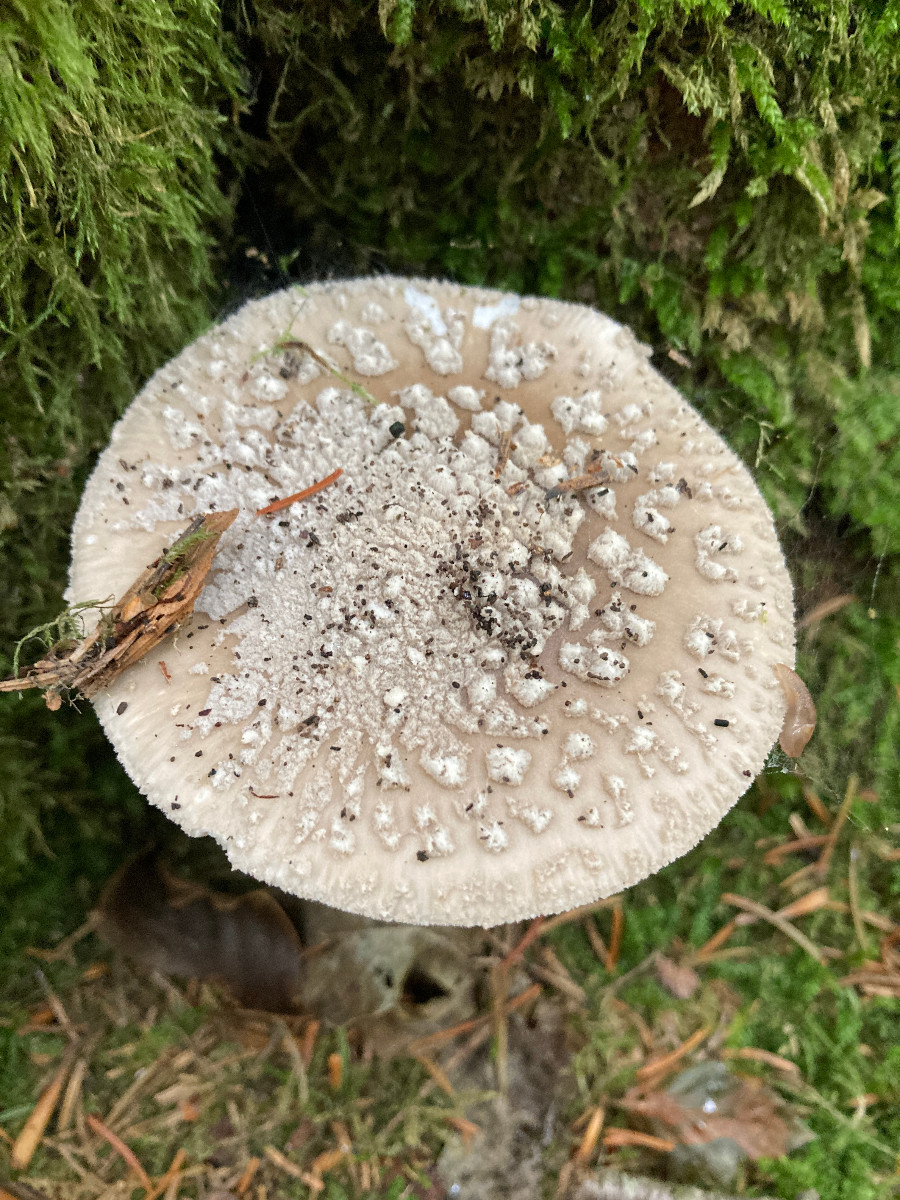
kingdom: Fungi
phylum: Basidiomycota
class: Agaricomycetes
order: Agaricales
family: Amanitaceae
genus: Amanita
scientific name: Amanita
